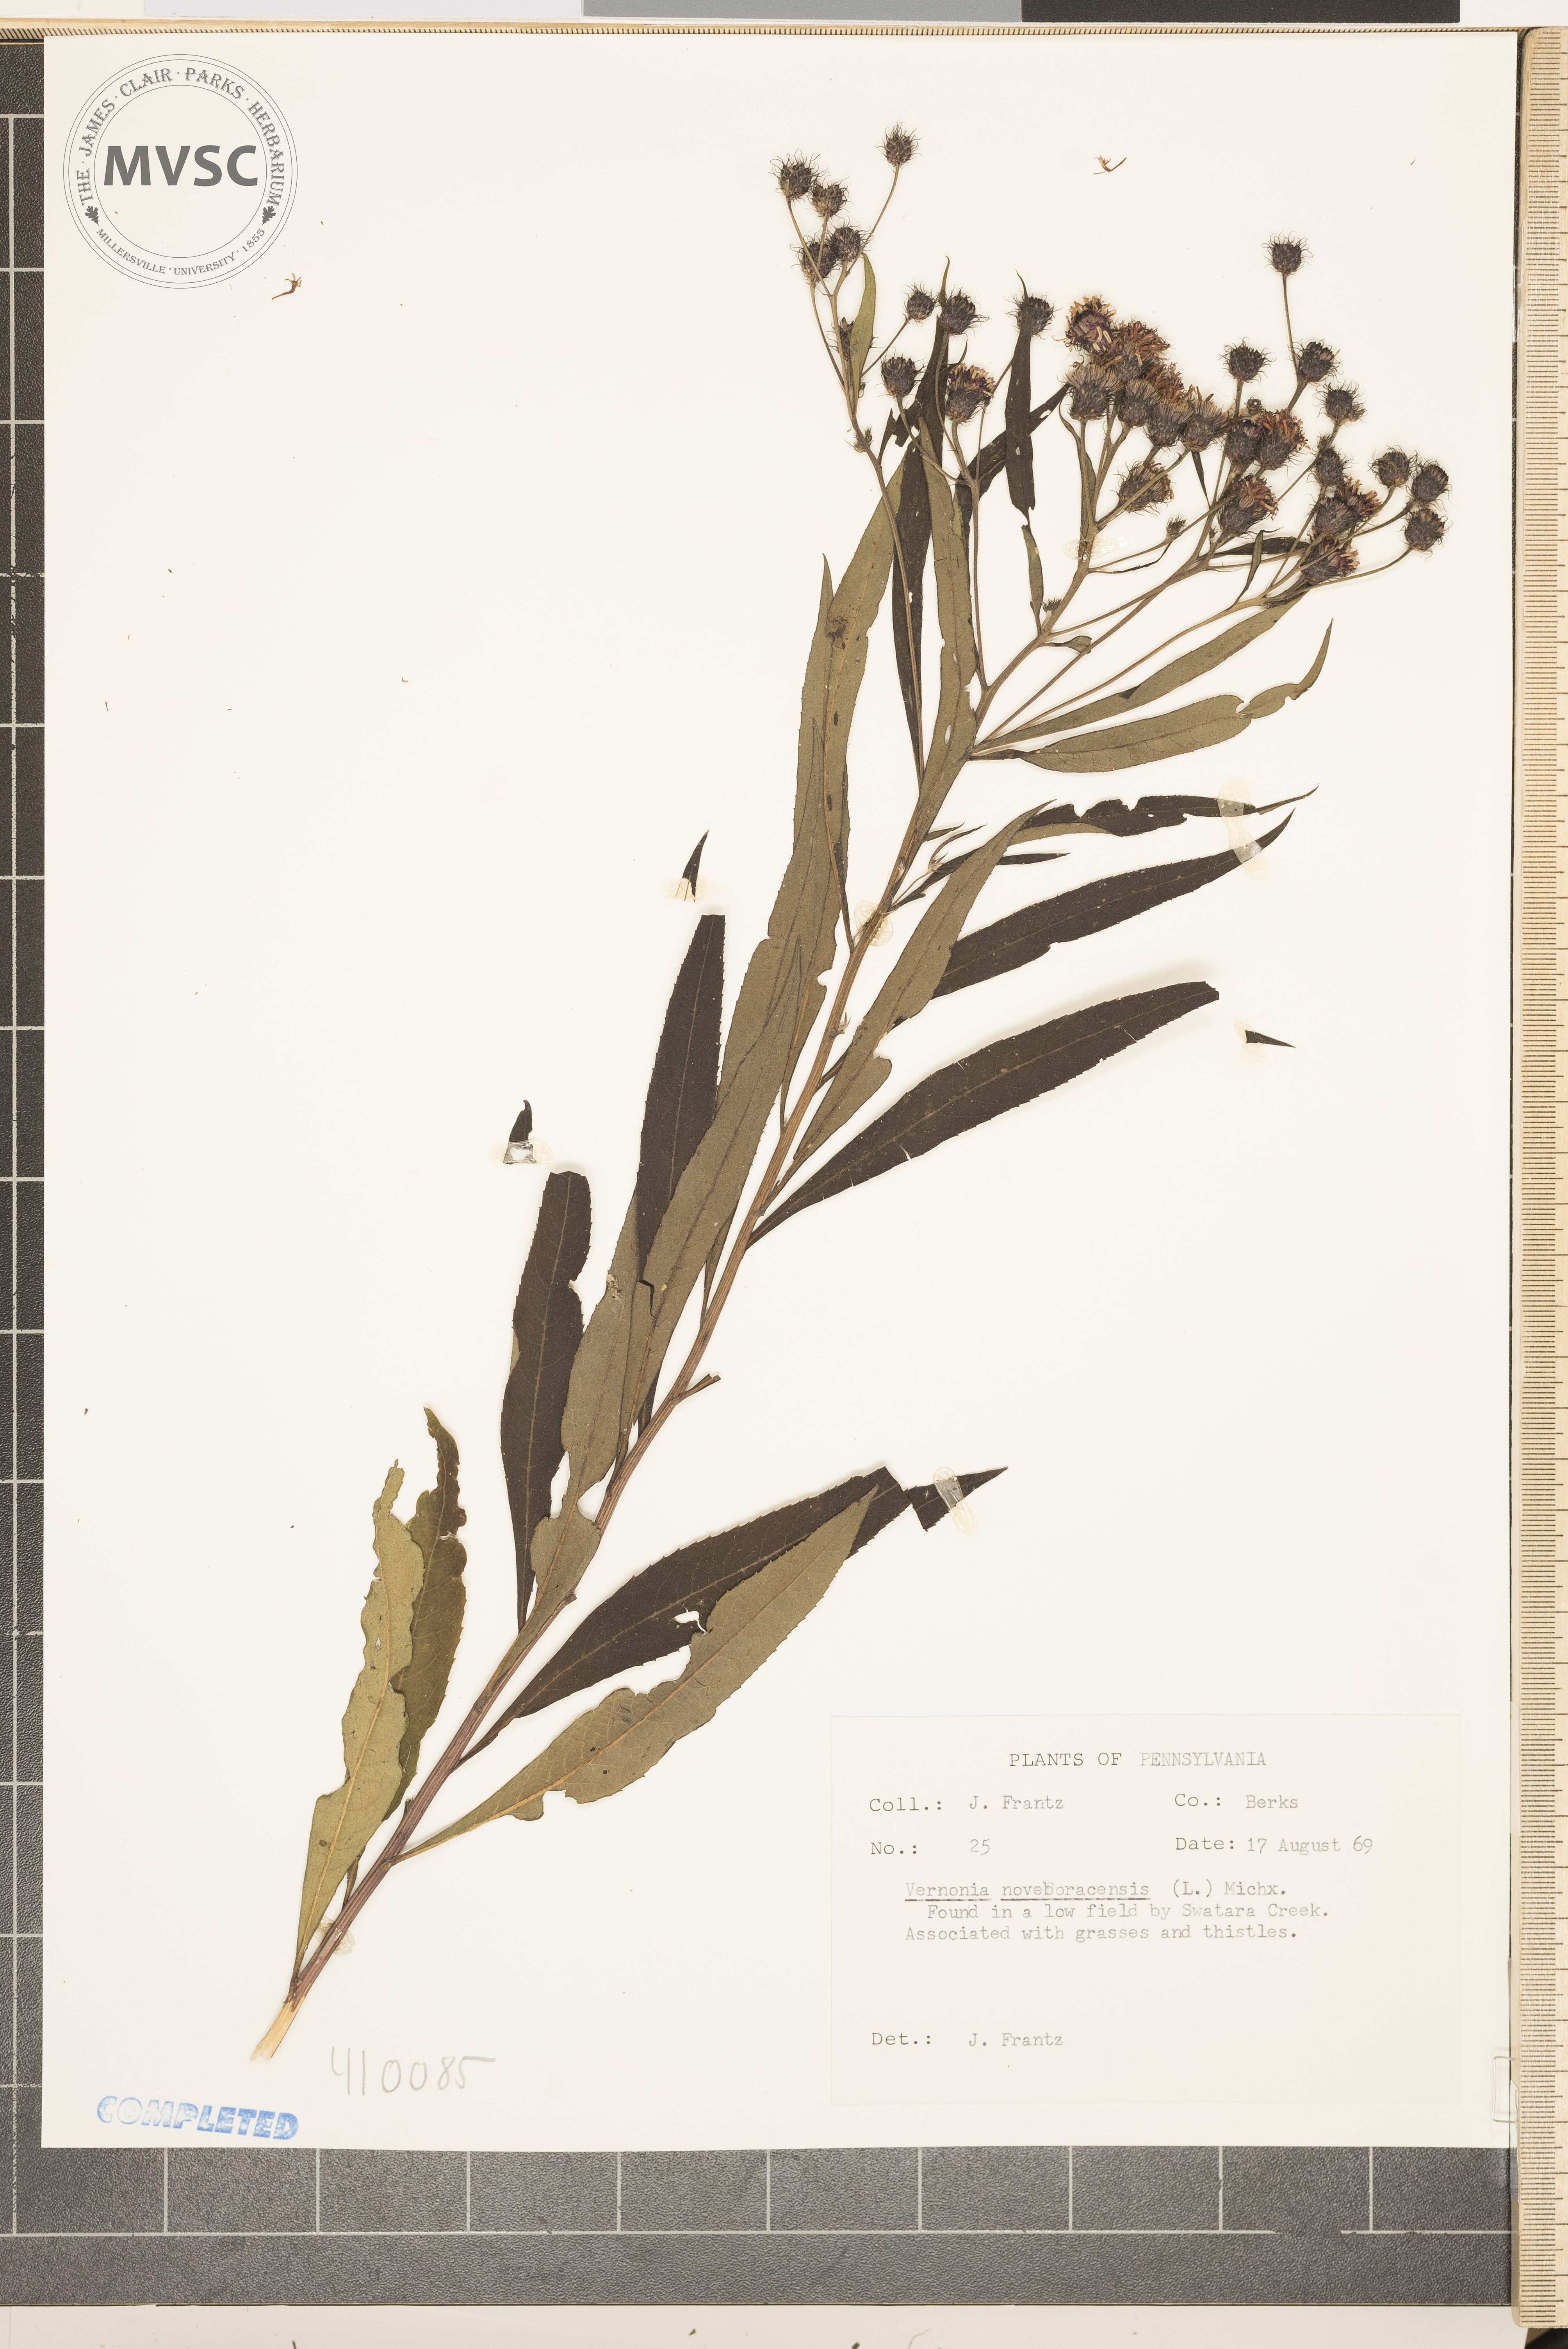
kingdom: Plantae
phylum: Tracheophyta
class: Magnoliopsida
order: Asterales
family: Asteraceae
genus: Vernonia
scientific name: Vernonia noveboracensis
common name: New york ironweed
